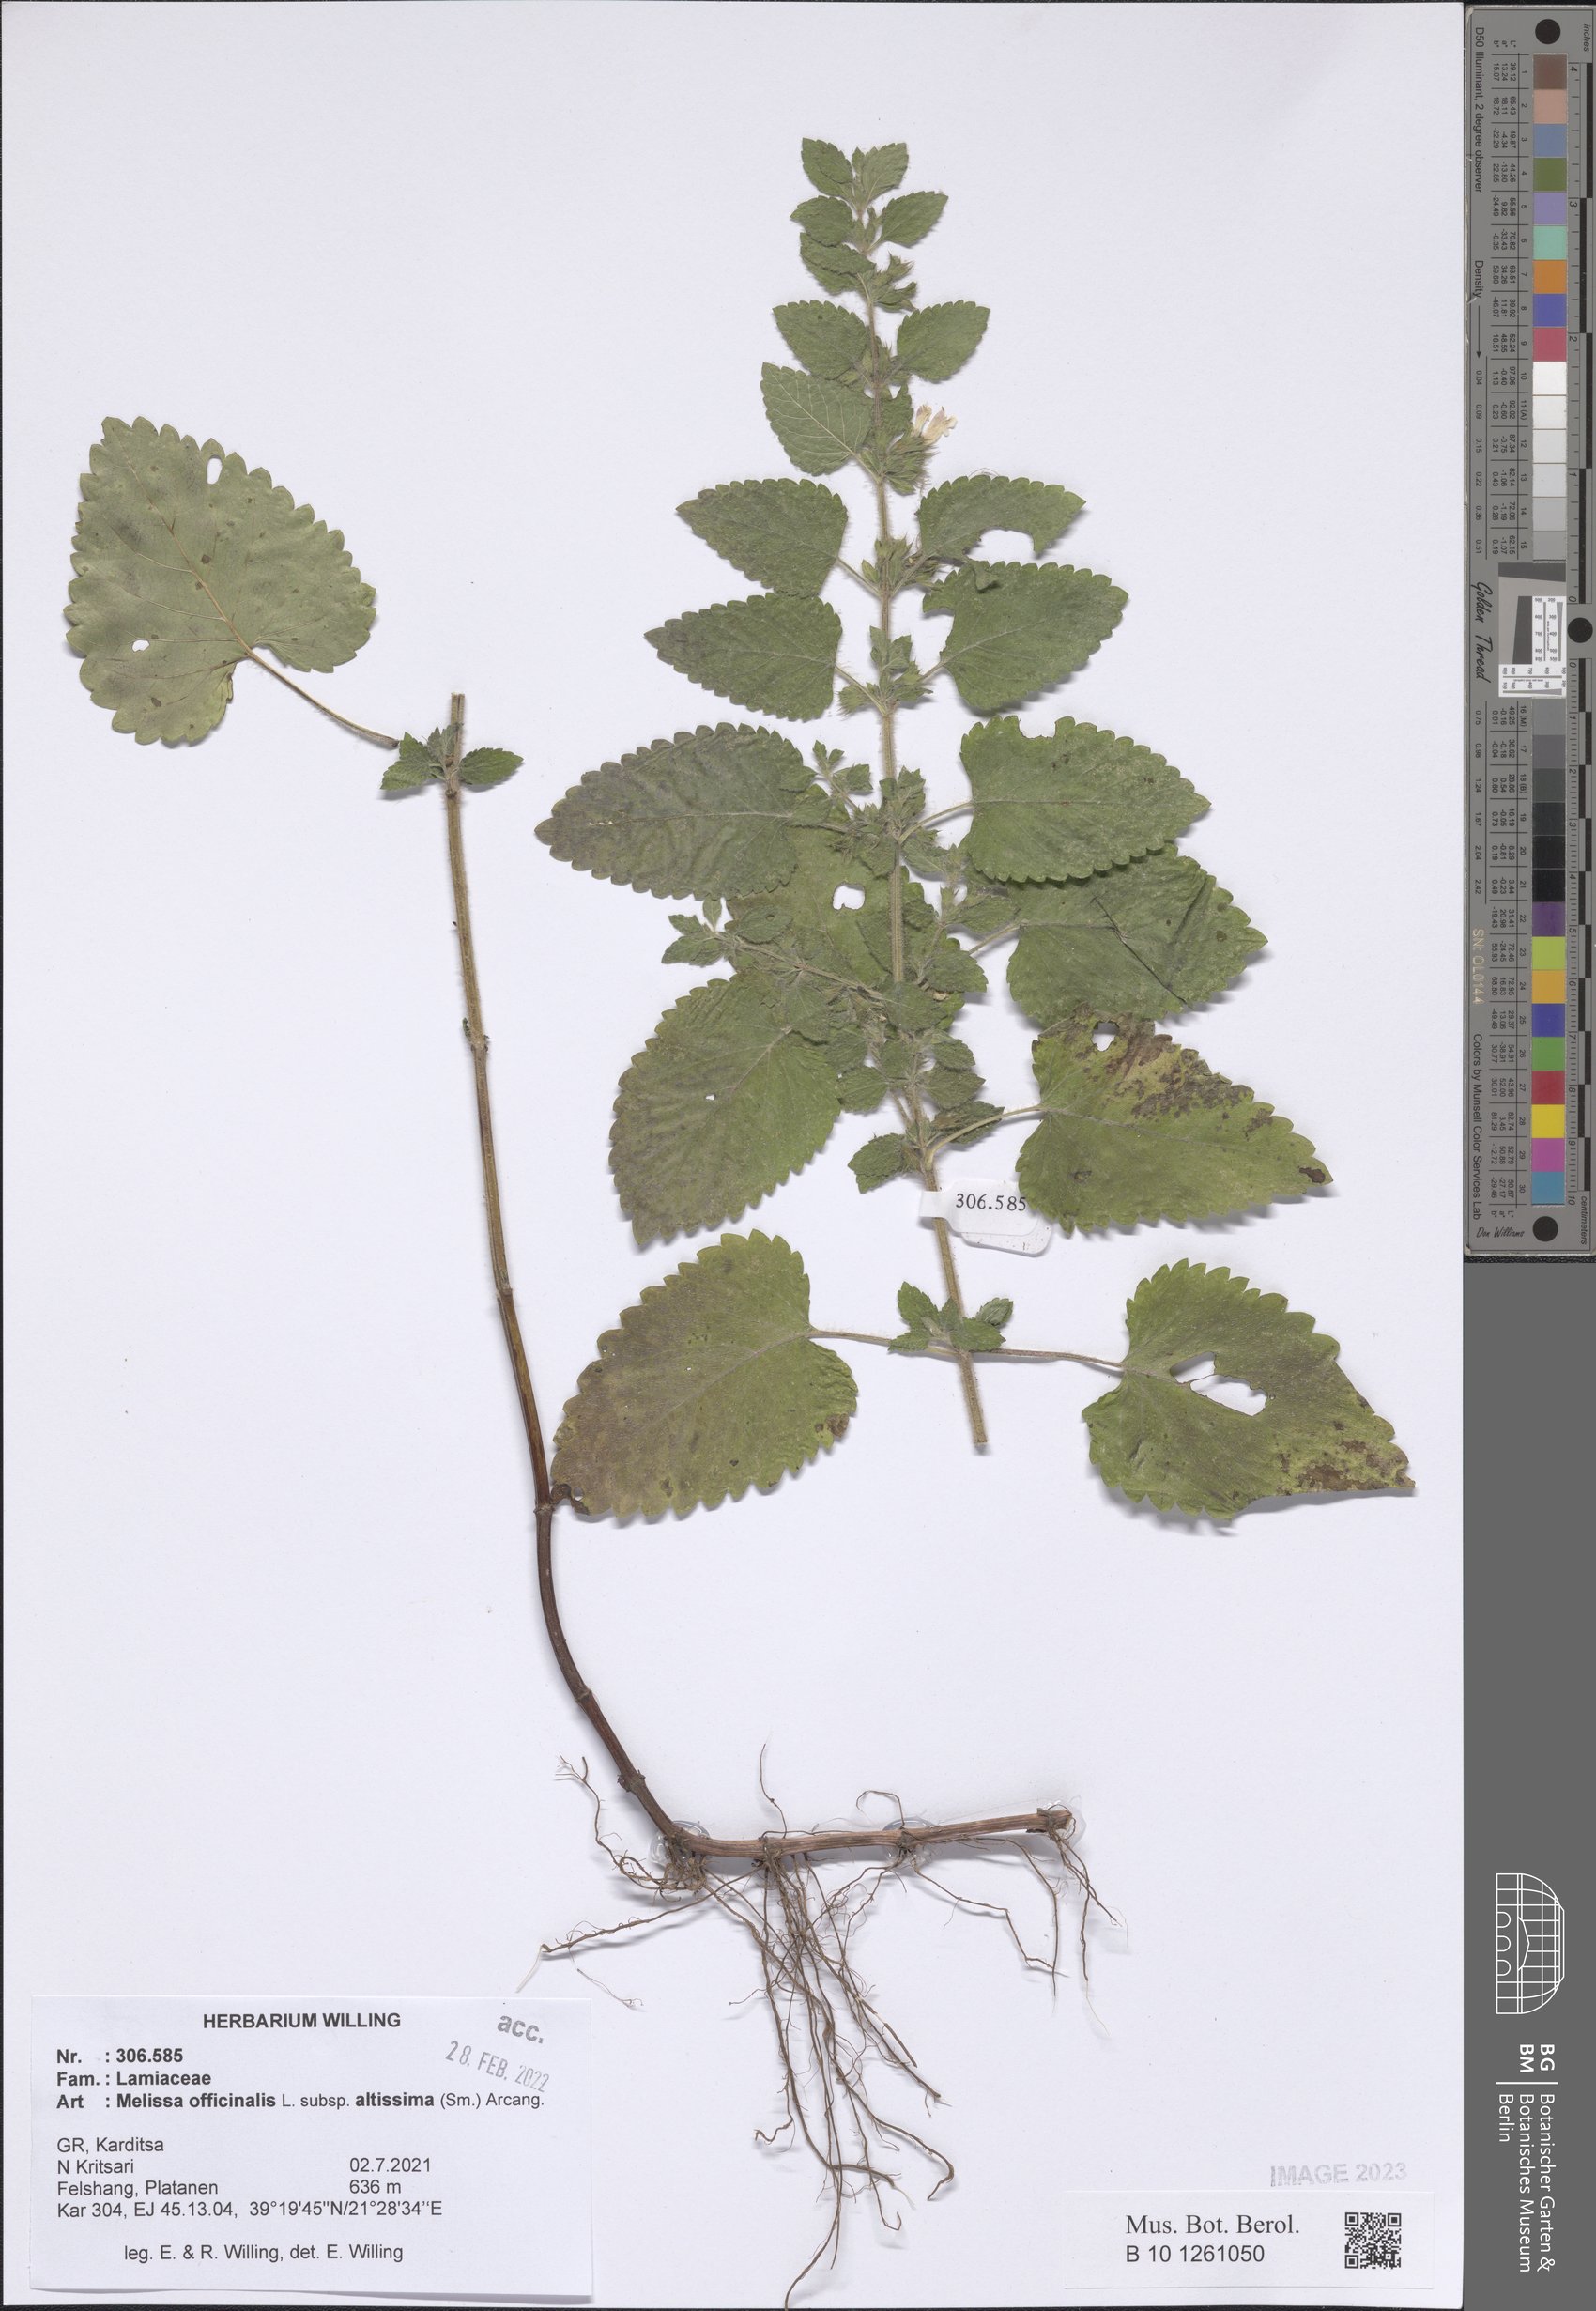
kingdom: Plantae
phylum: Tracheophyta
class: Magnoliopsida
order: Lamiales
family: Lamiaceae
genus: Melissa
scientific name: Melissa officinalis
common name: Balm
